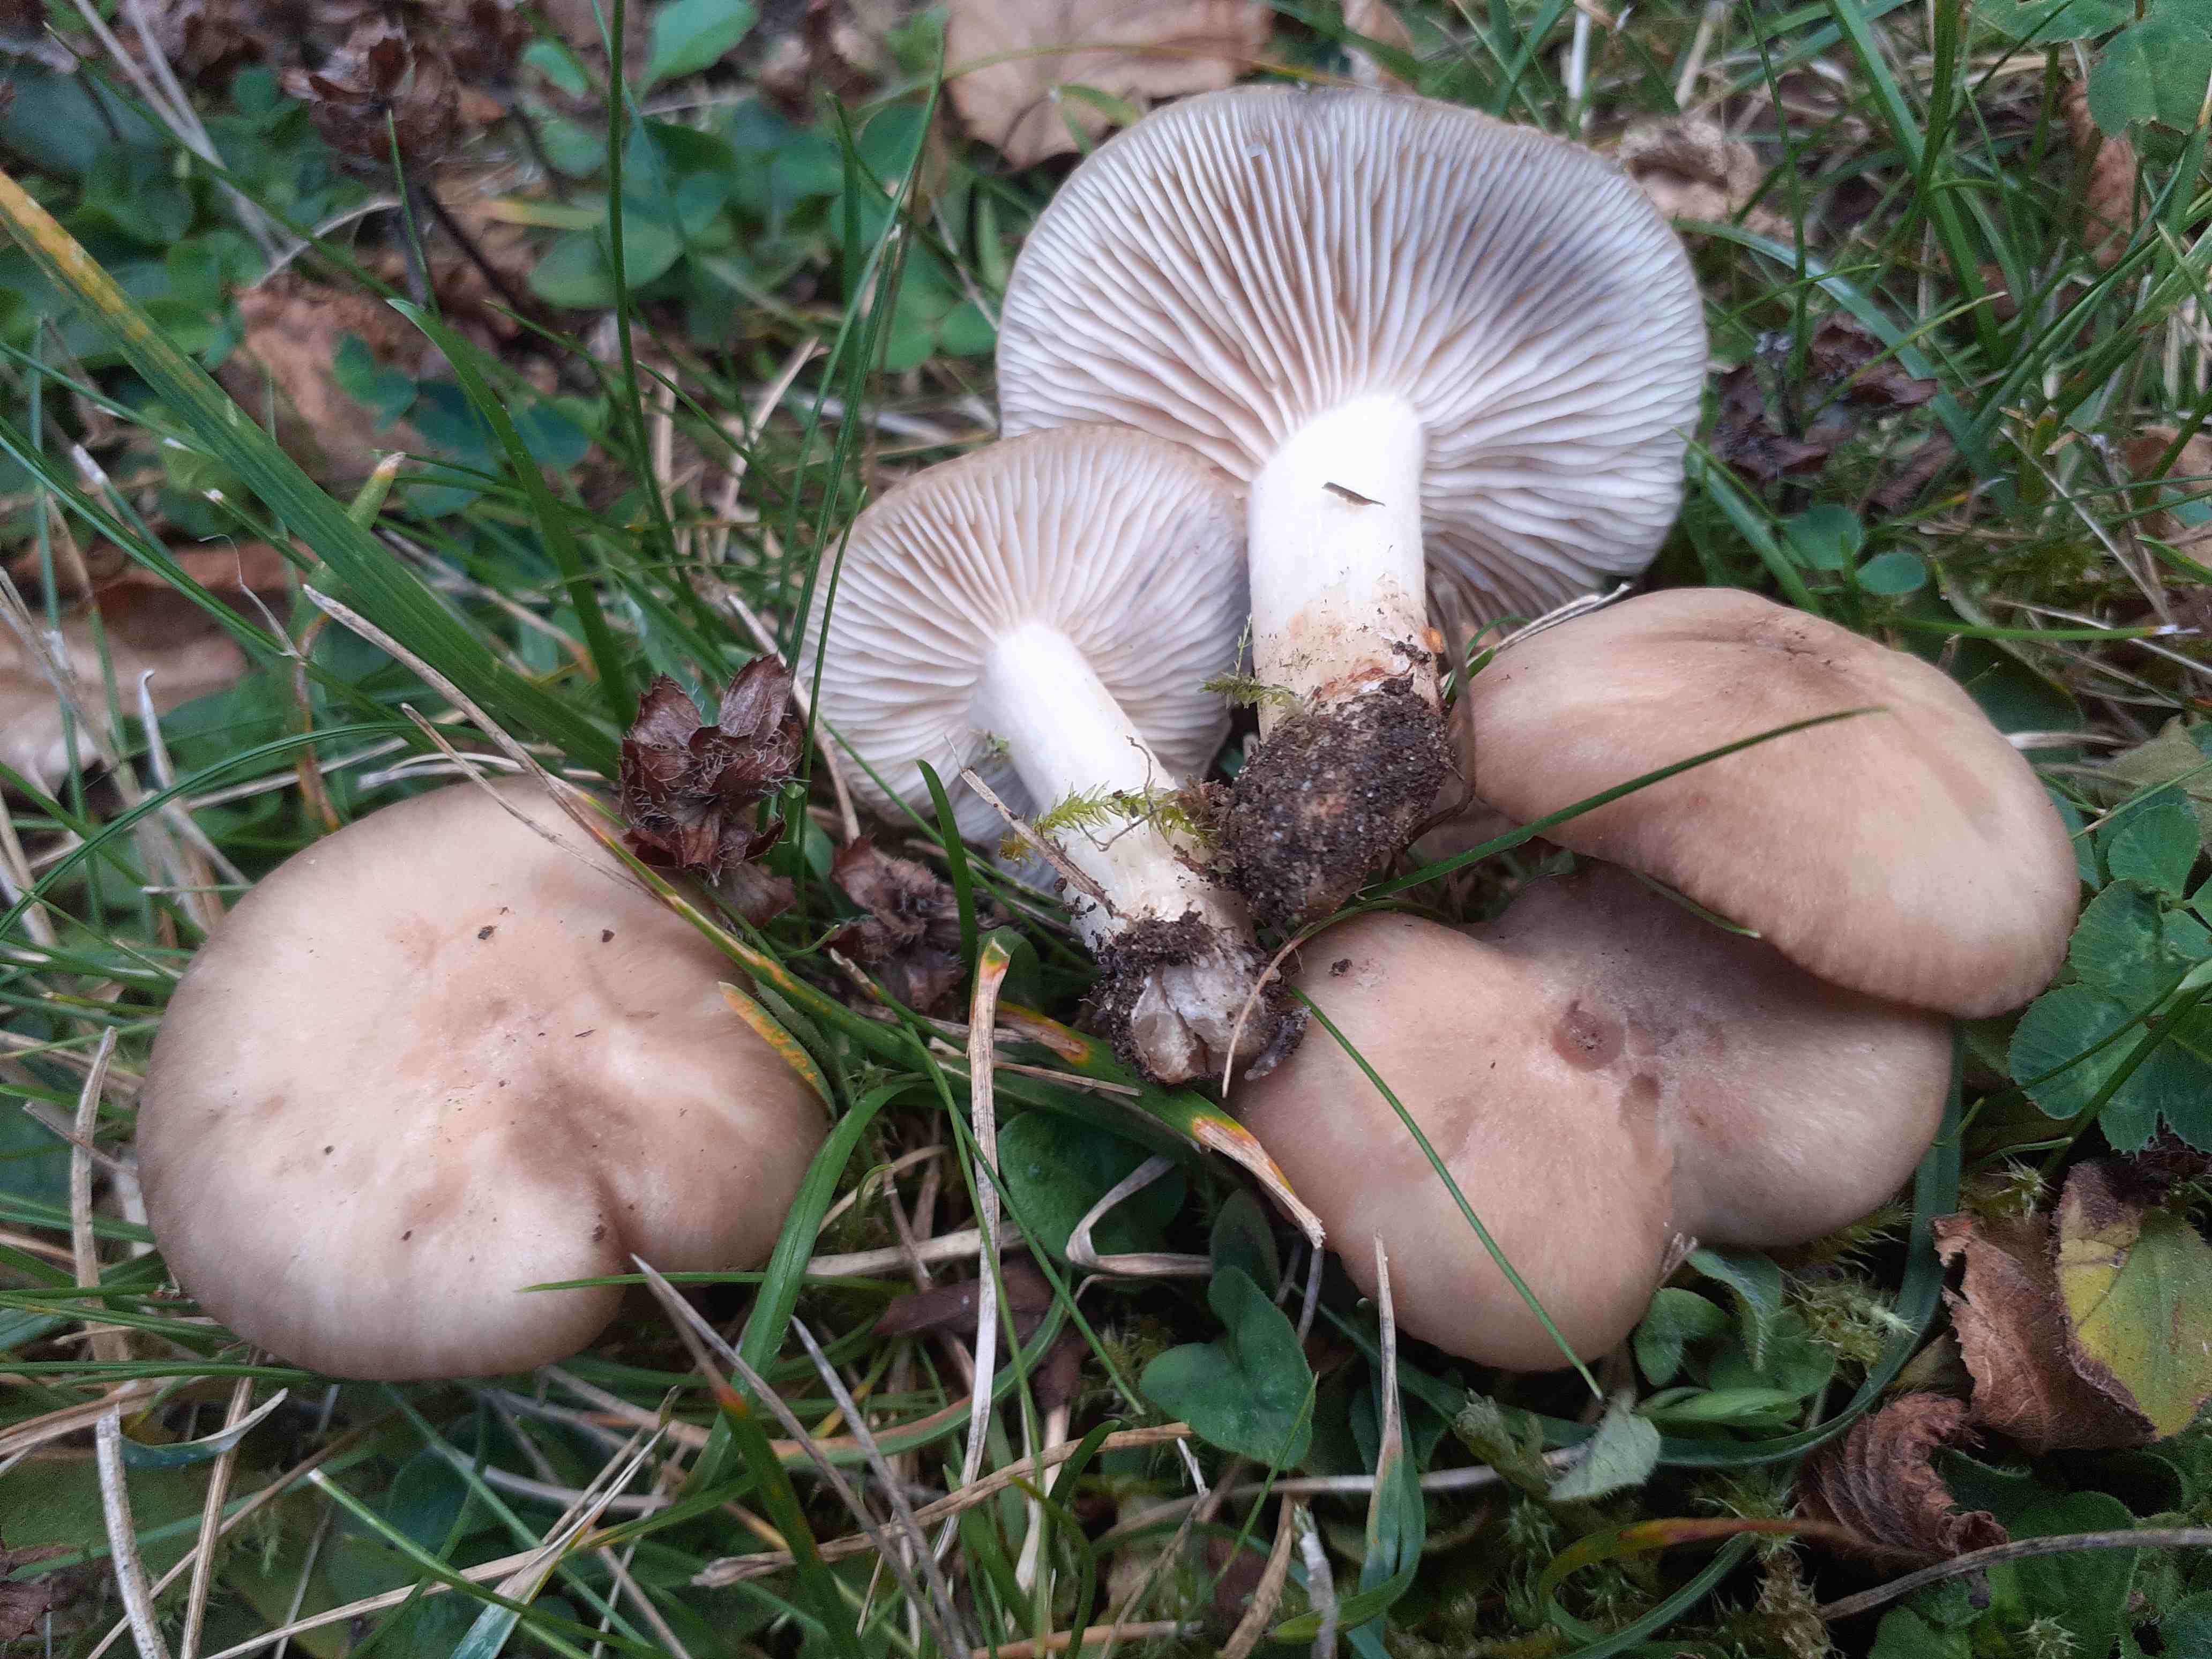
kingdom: Fungi
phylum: Basidiomycota
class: Agaricomycetes
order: Agaricales
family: Lyophyllaceae
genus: Lyophyllum
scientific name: Lyophyllum paelochroum
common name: blånende gråblad
